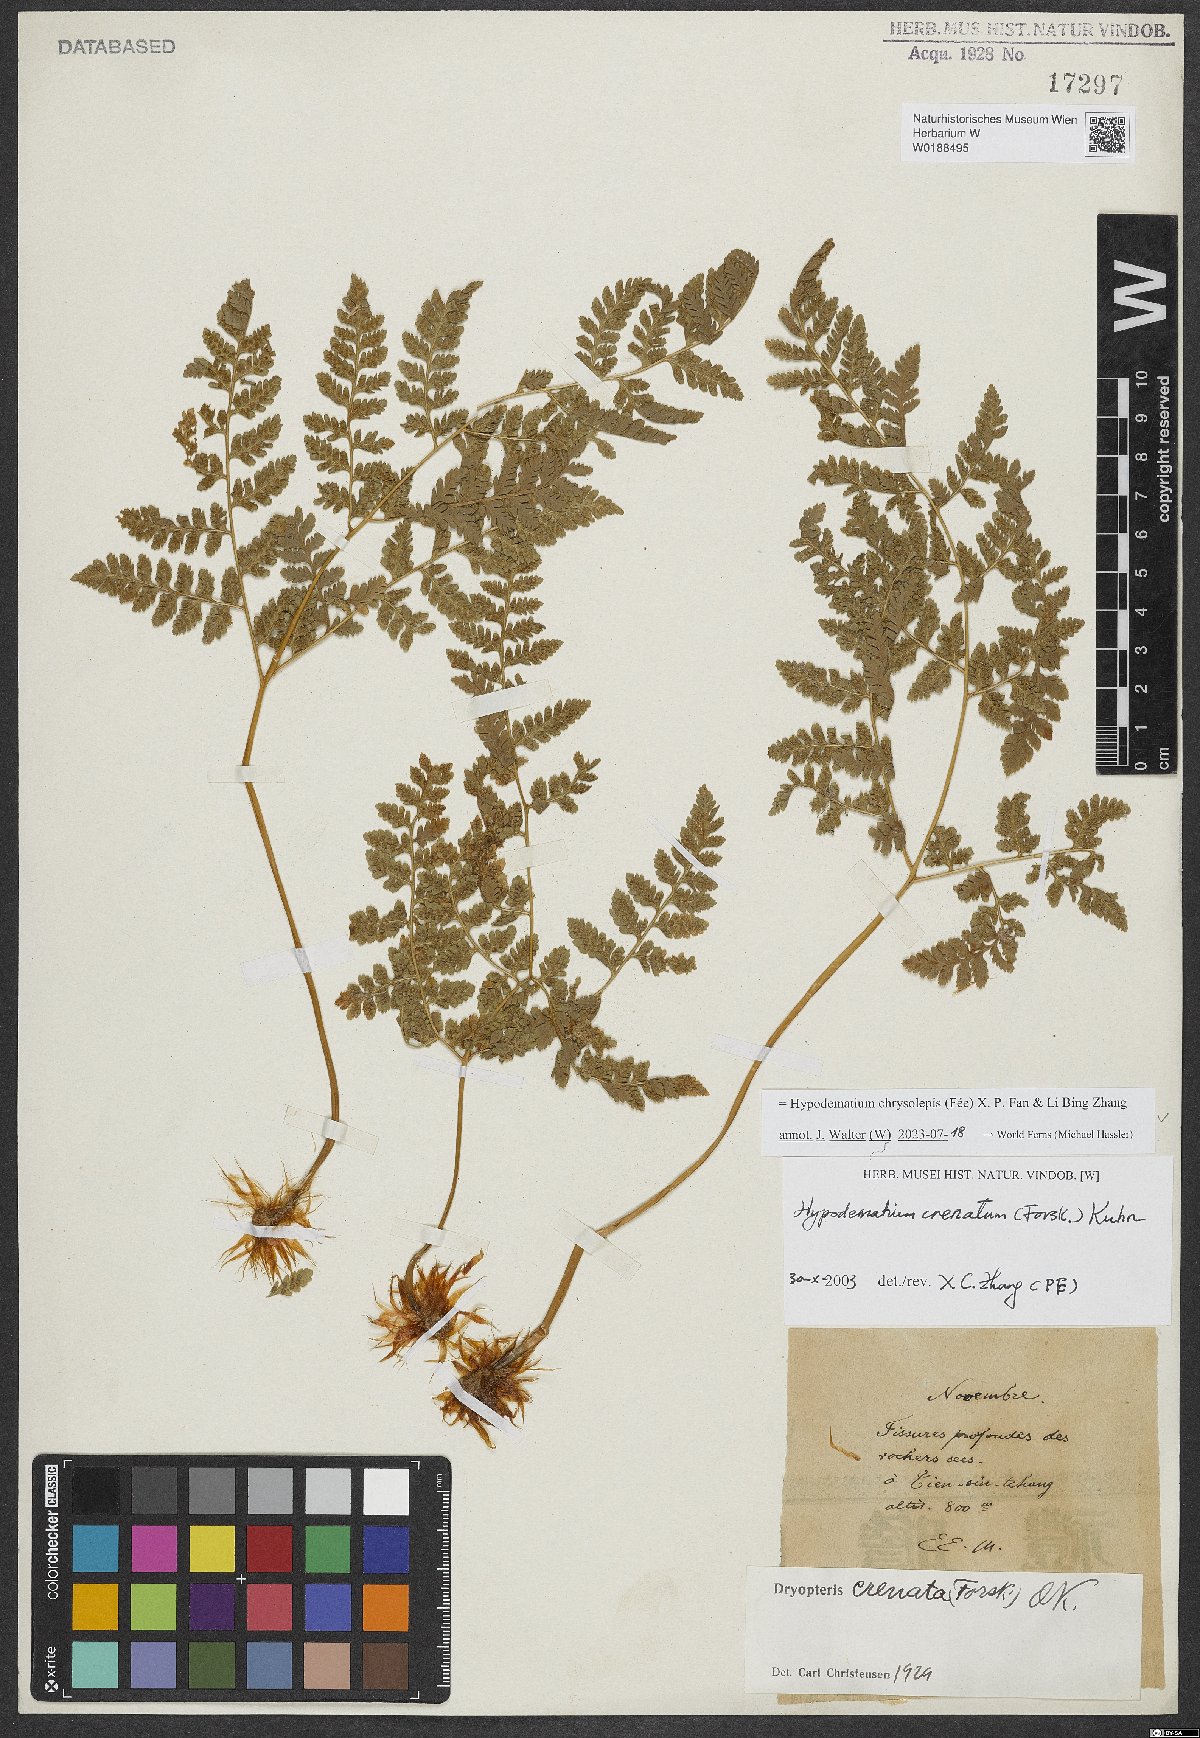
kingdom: Plantae
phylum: Tracheophyta
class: Polypodiopsida
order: Polypodiales
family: Hypodematiaceae
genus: Hypodematium
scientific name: Hypodematium chrysolepis
